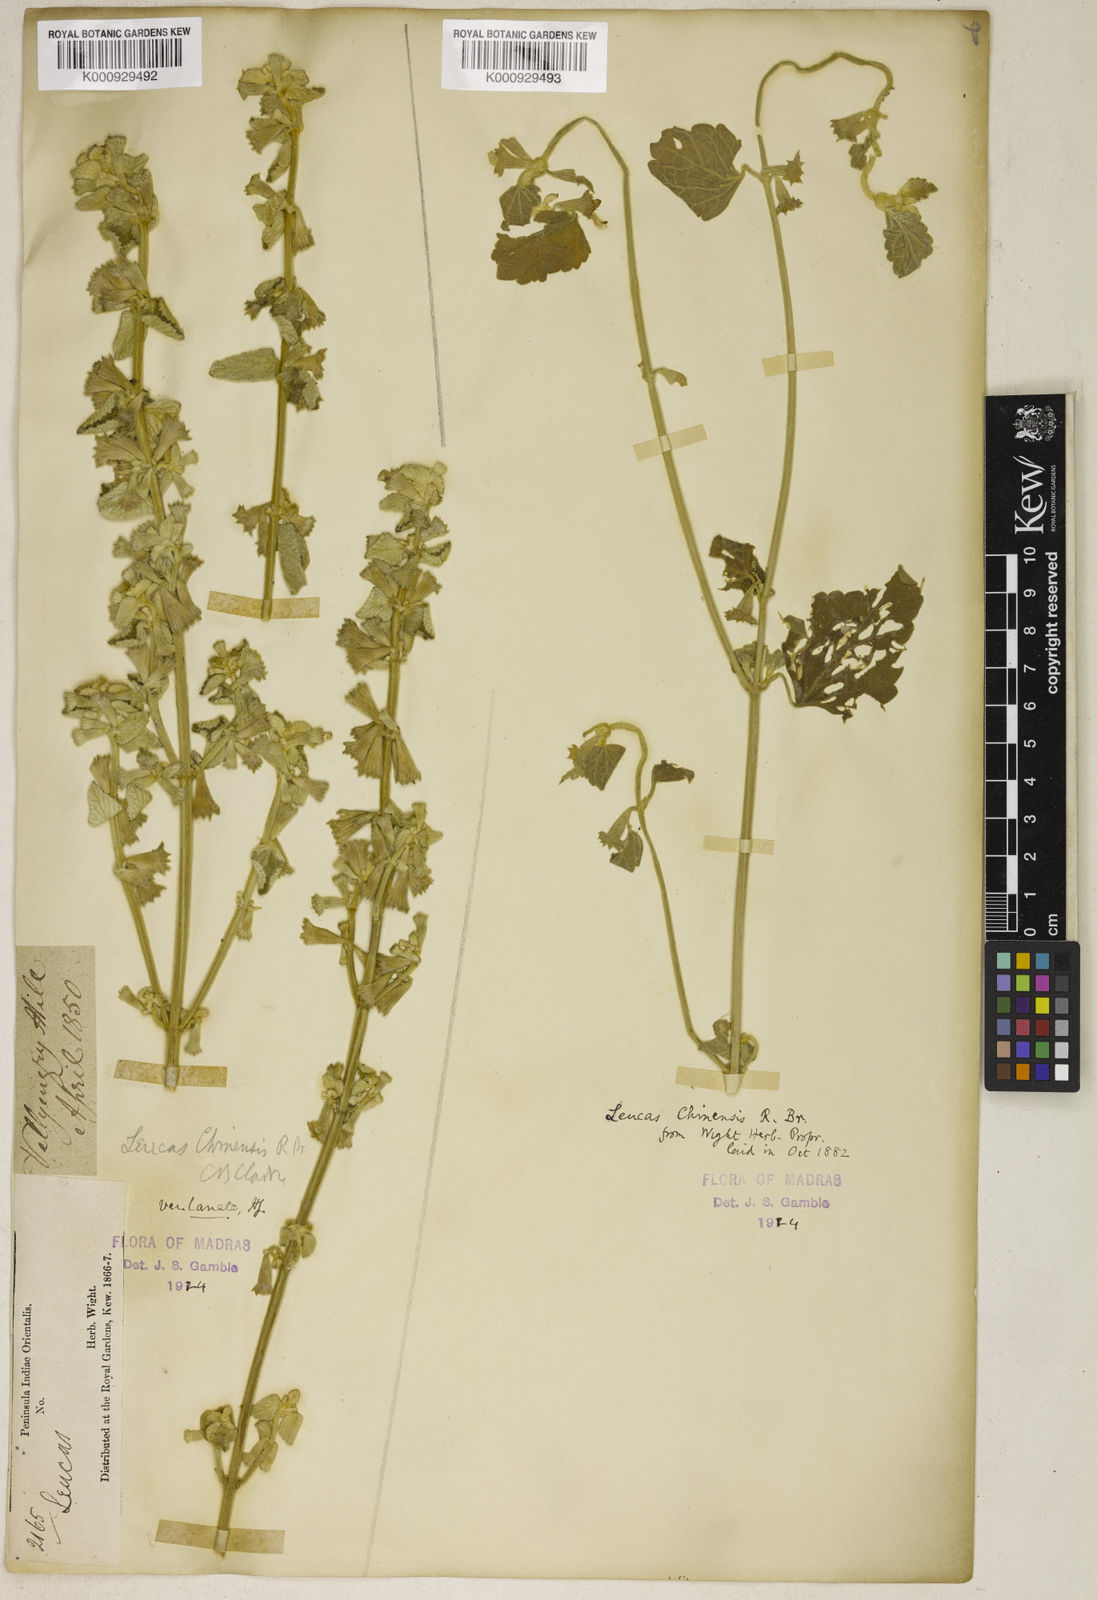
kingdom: Plantae
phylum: Tracheophyta
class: Magnoliopsida
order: Lamiales
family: Lamiaceae
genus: Leucas
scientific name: Leucas chinensis
